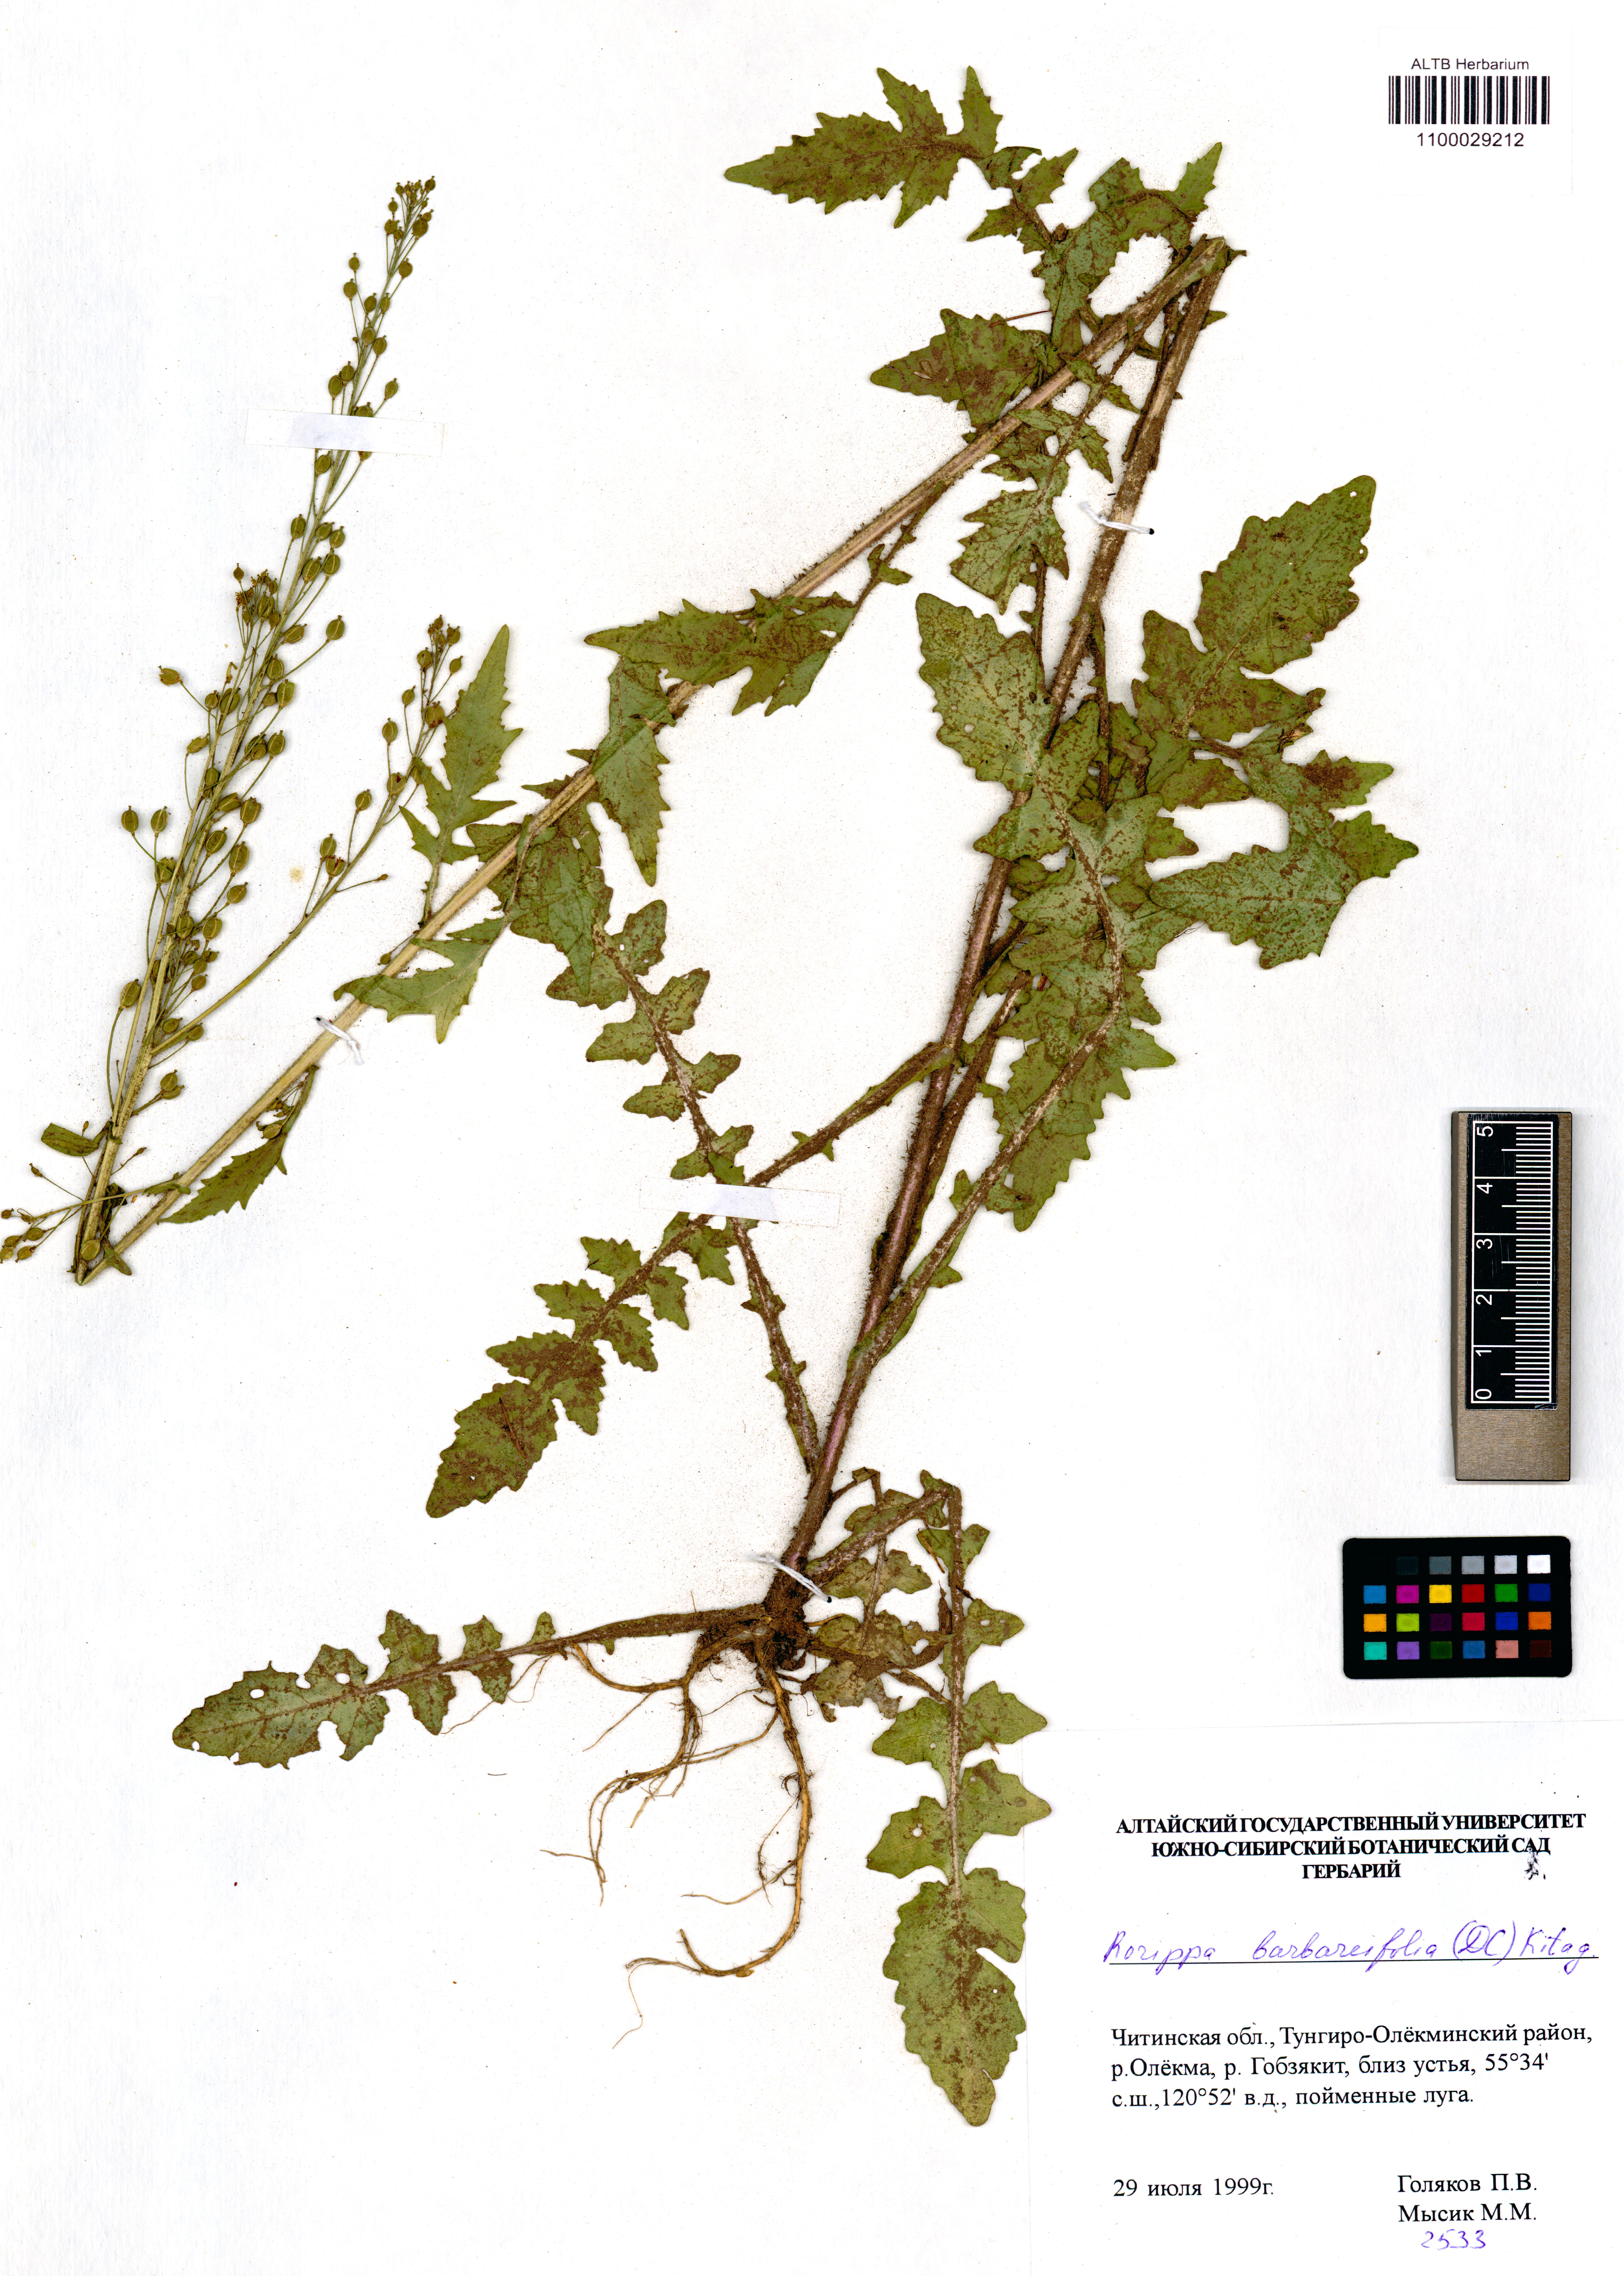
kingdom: Plantae
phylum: Tracheophyta
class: Magnoliopsida
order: Brassicales
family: Brassicaceae
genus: Rorippa
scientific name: Rorippa barbaraefolia
